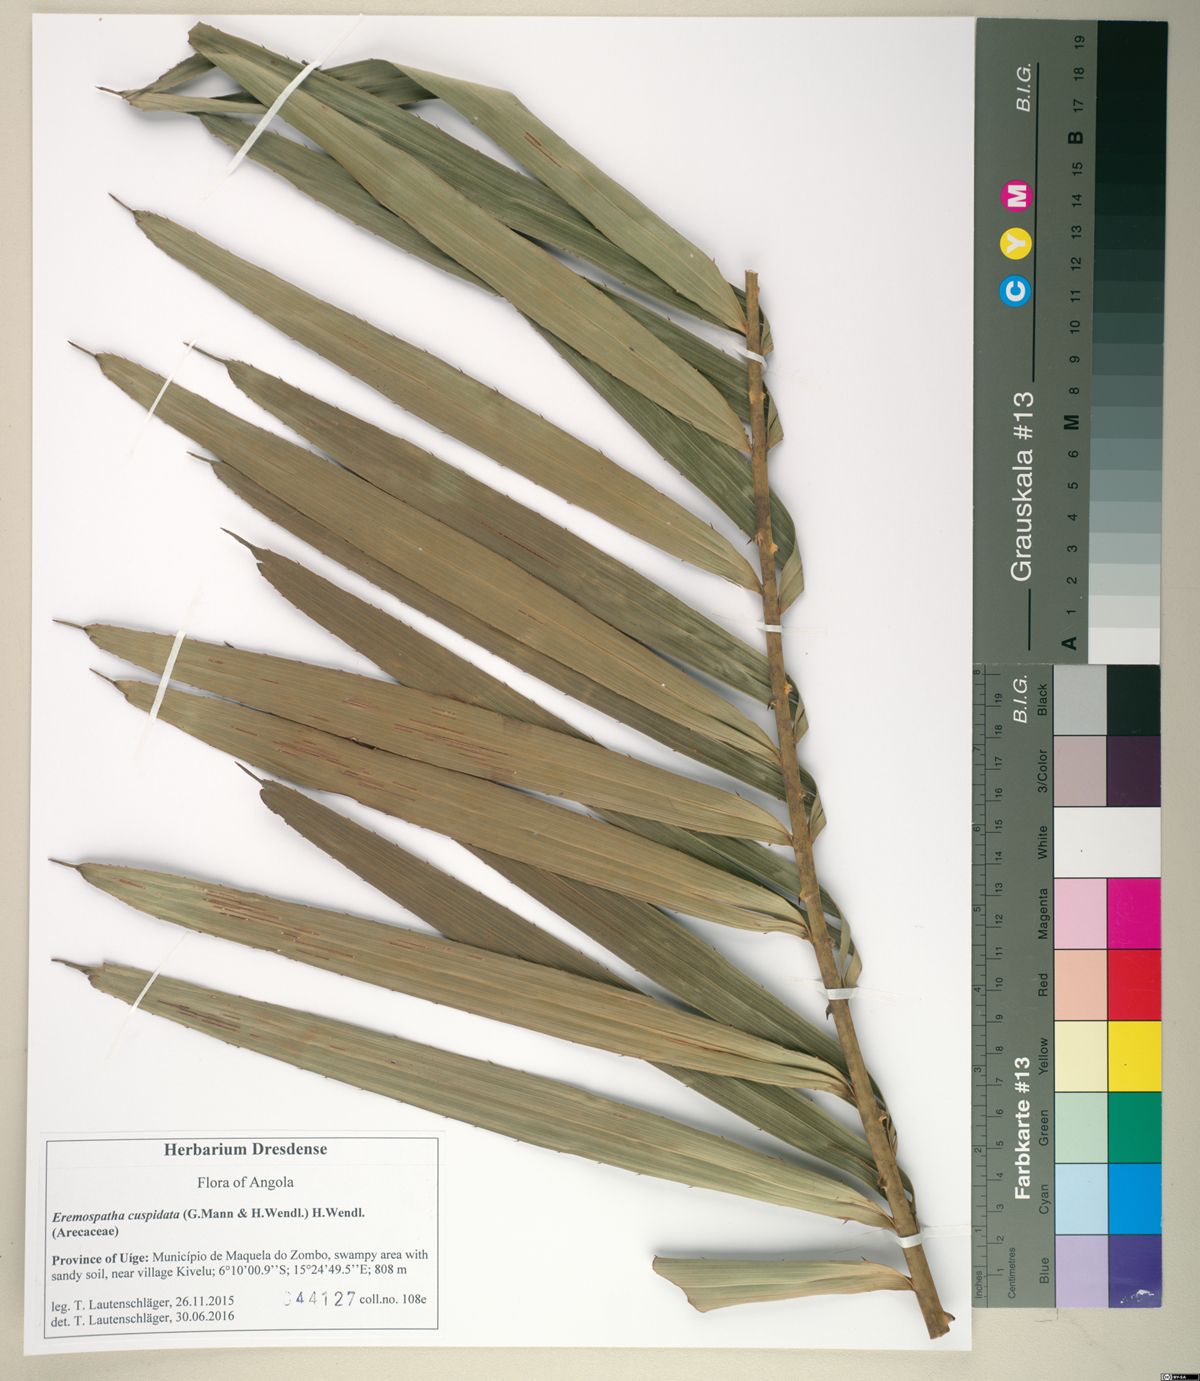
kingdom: Plantae
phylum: Tracheophyta
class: Liliopsida
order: Arecales
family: Arecaceae
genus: Eremospatha
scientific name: Eremospatha cuspidata
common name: Rattan
